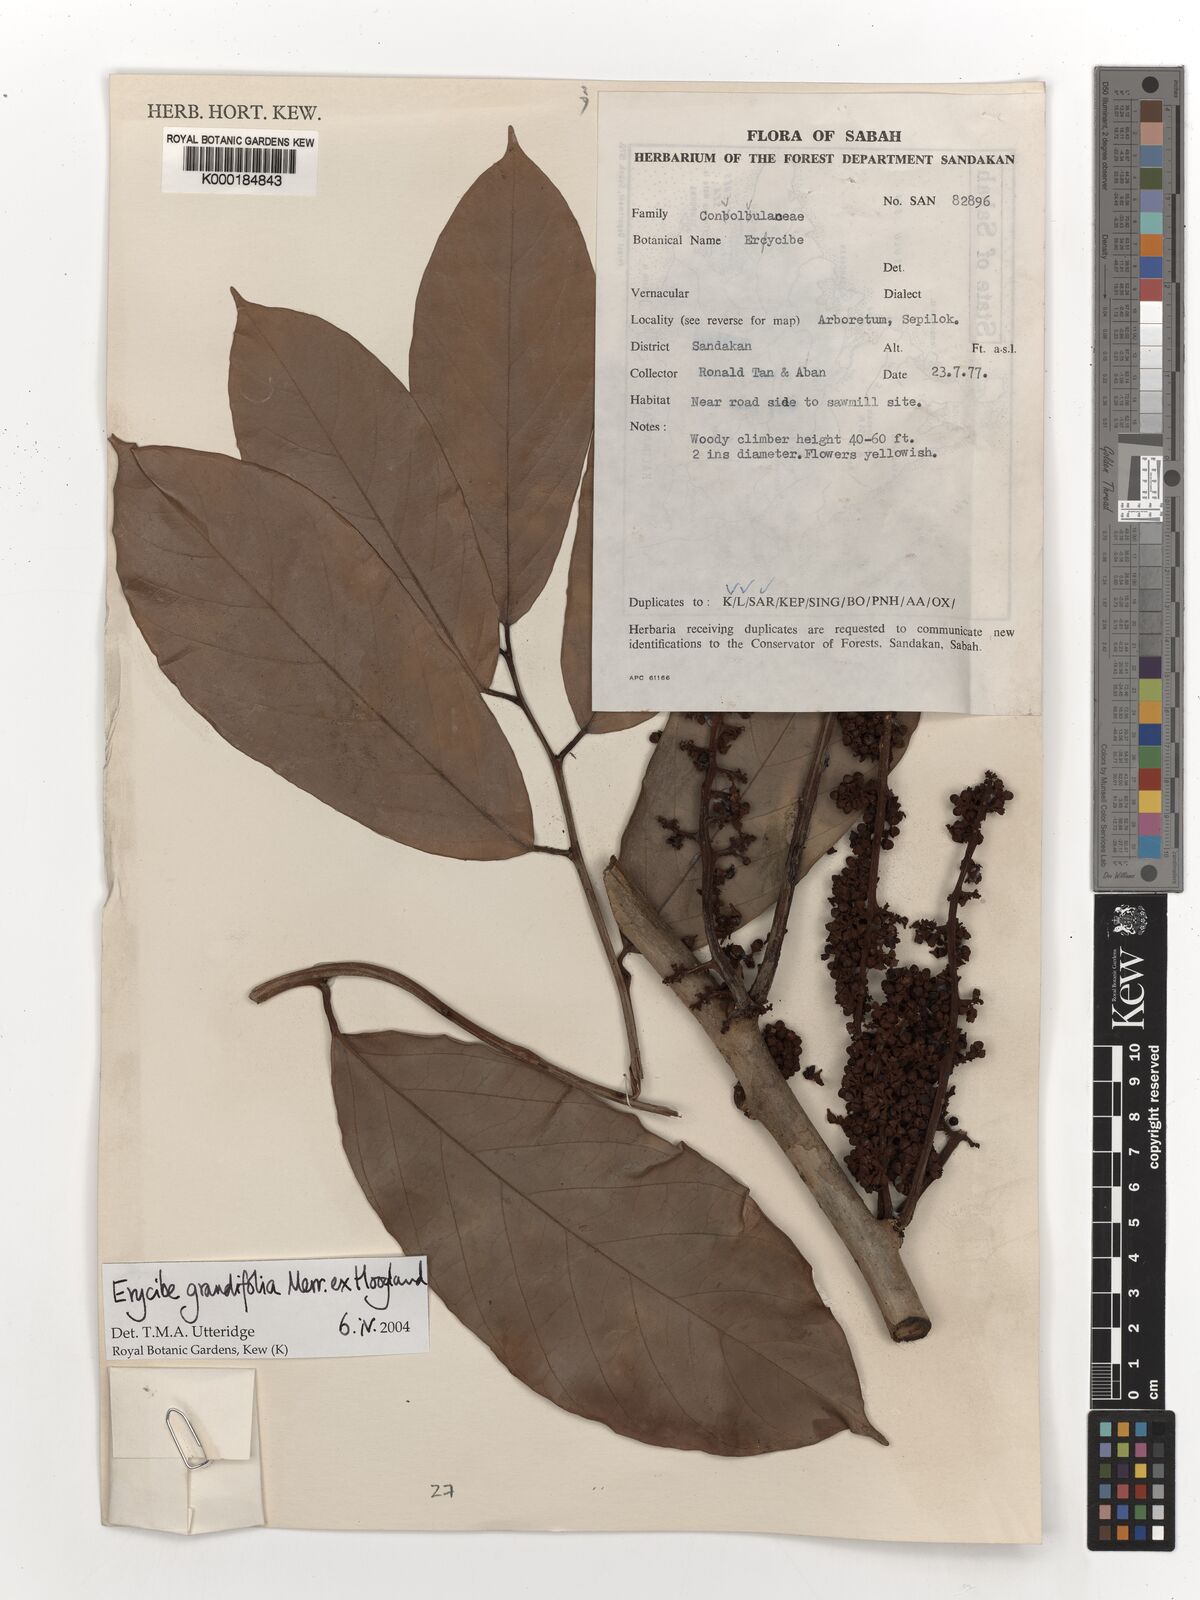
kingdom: Plantae
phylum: Tracheophyta
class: Magnoliopsida
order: Solanales
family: Convolvulaceae
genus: Erycibe
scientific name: Erycibe grandifolia
